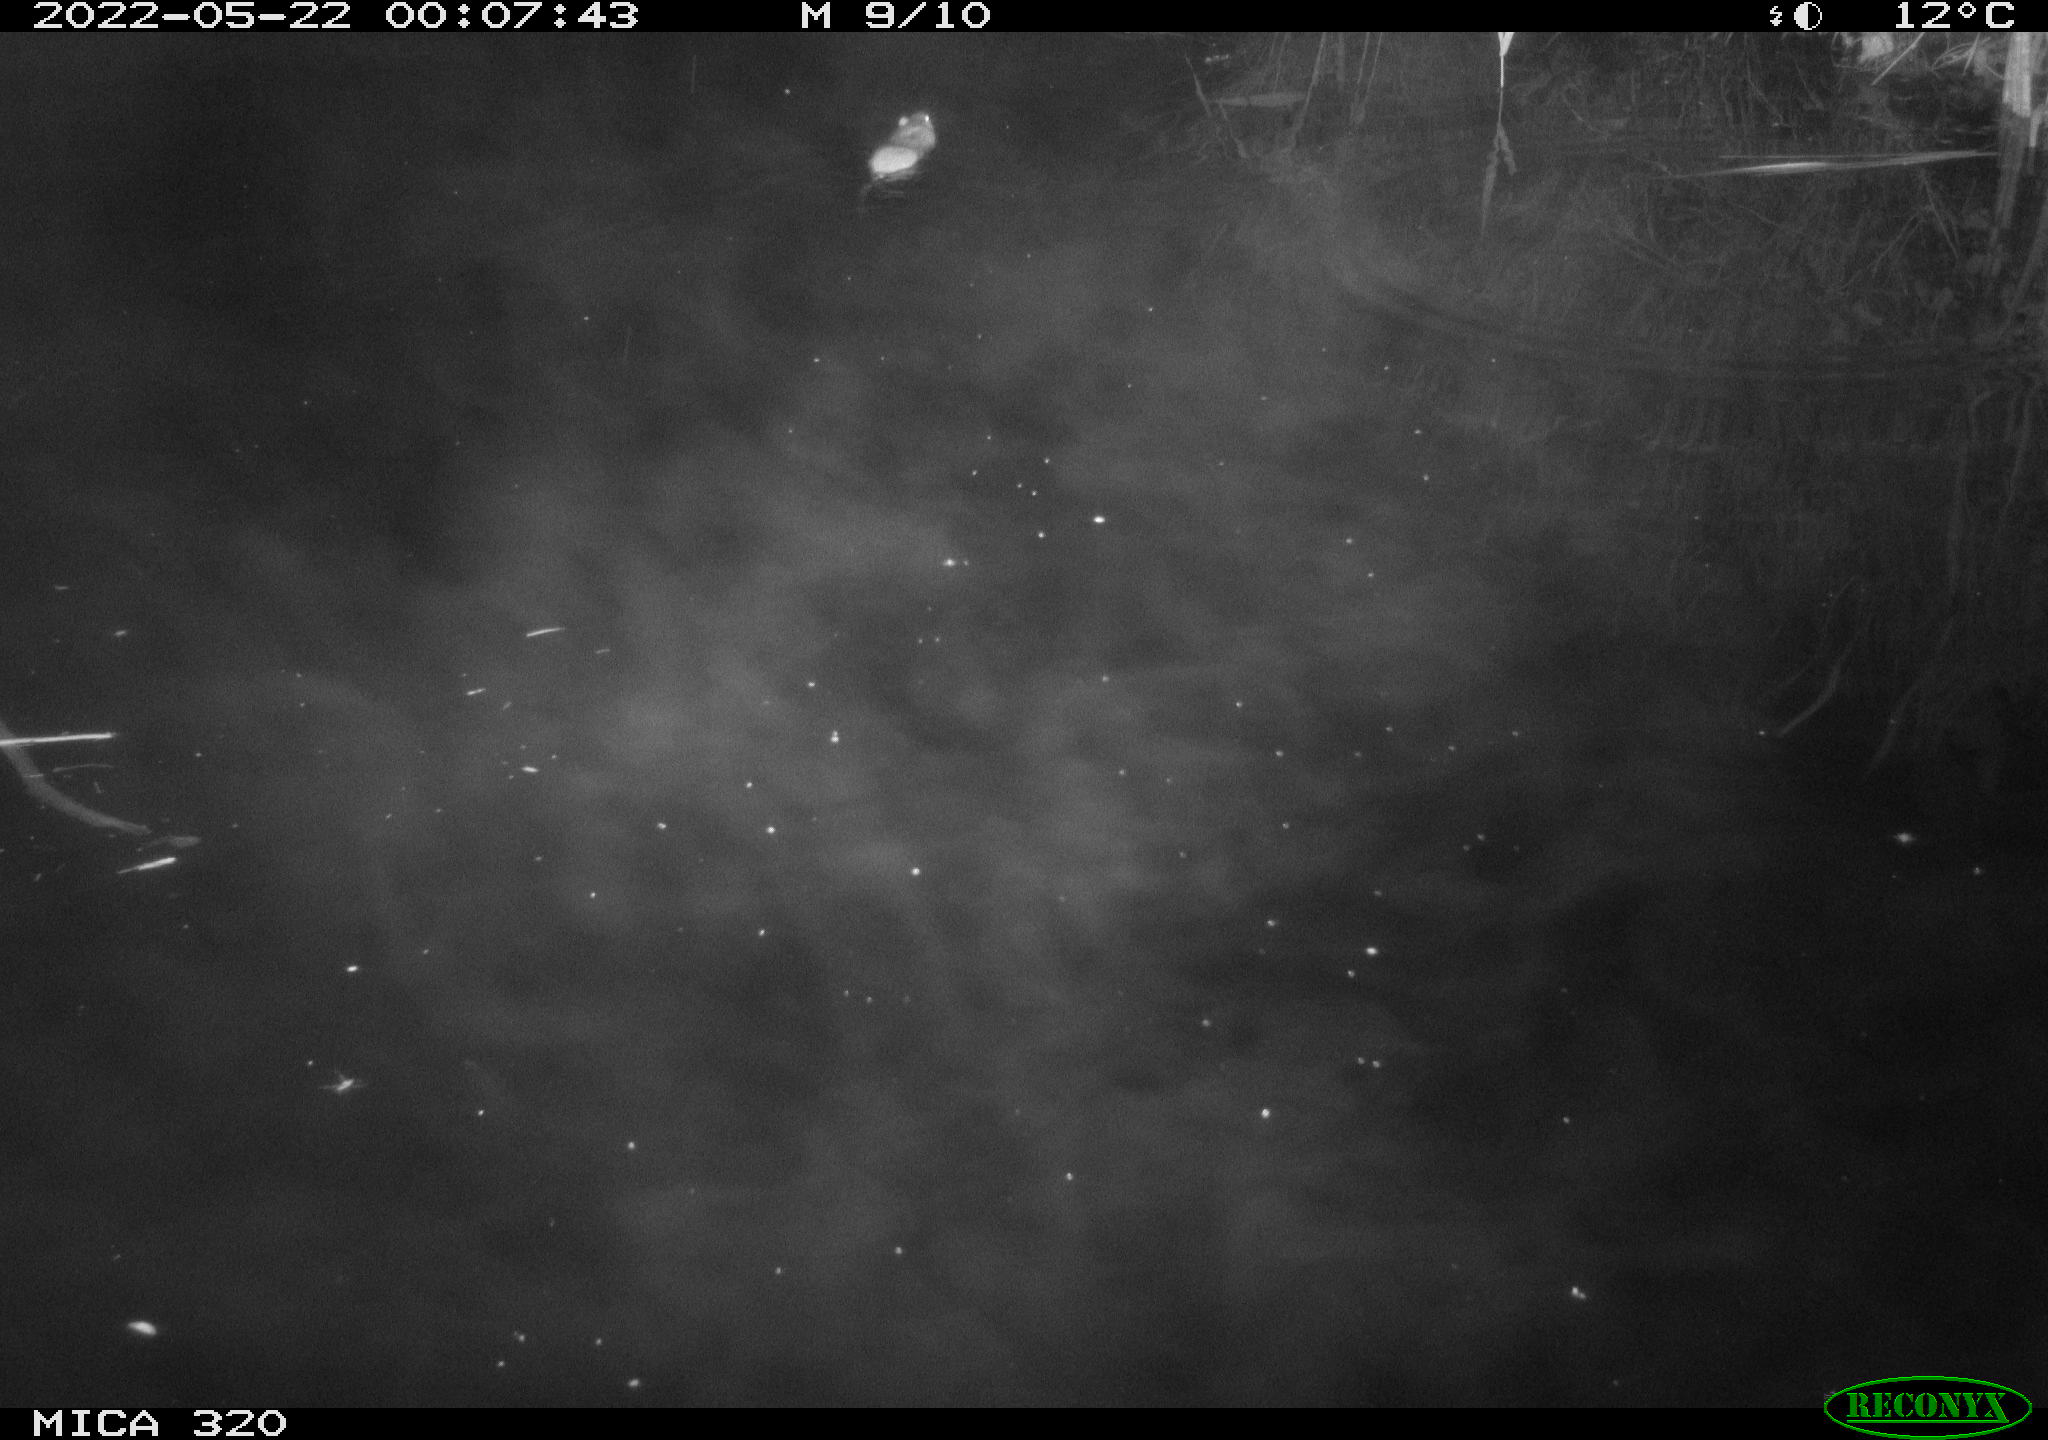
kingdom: Animalia
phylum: Chordata
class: Mammalia
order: Rodentia
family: Muridae
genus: Rattus
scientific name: Rattus norvegicus
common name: Brown rat
